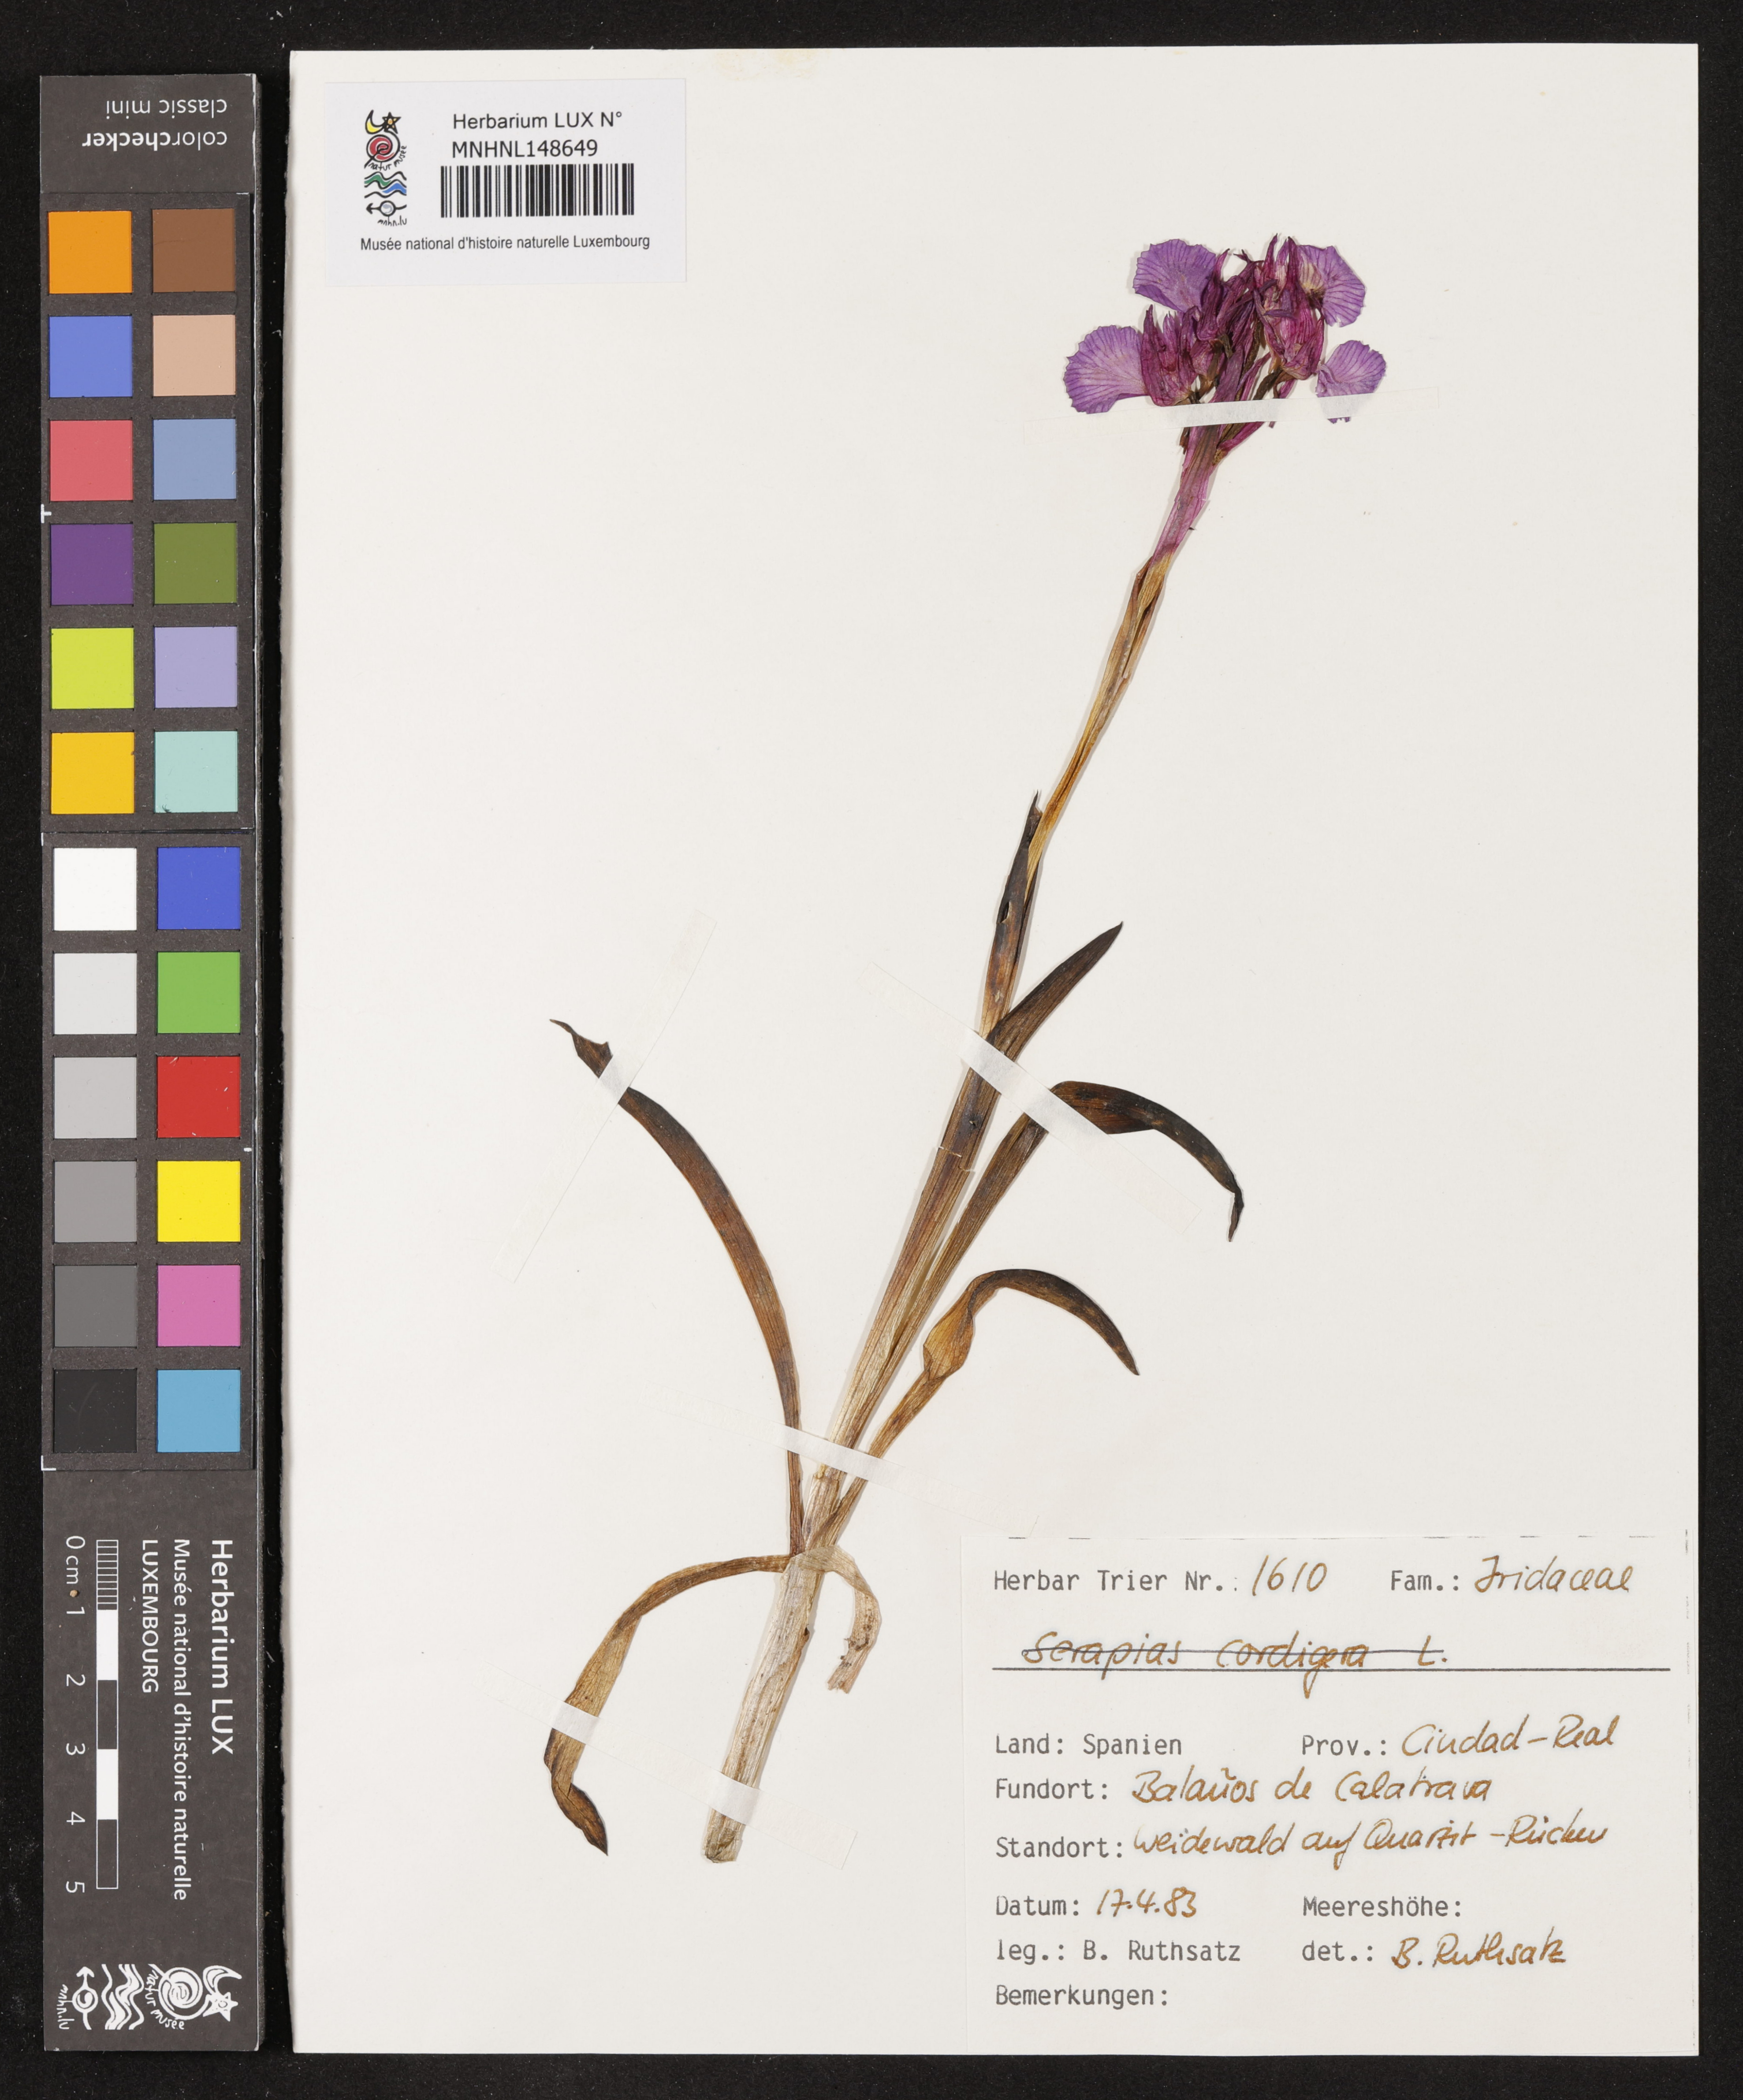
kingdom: Plantae
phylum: Tracheophyta
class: Liliopsida
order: Asparagales
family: Orchidaceae
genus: Serapias
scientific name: Serapias cordigera
